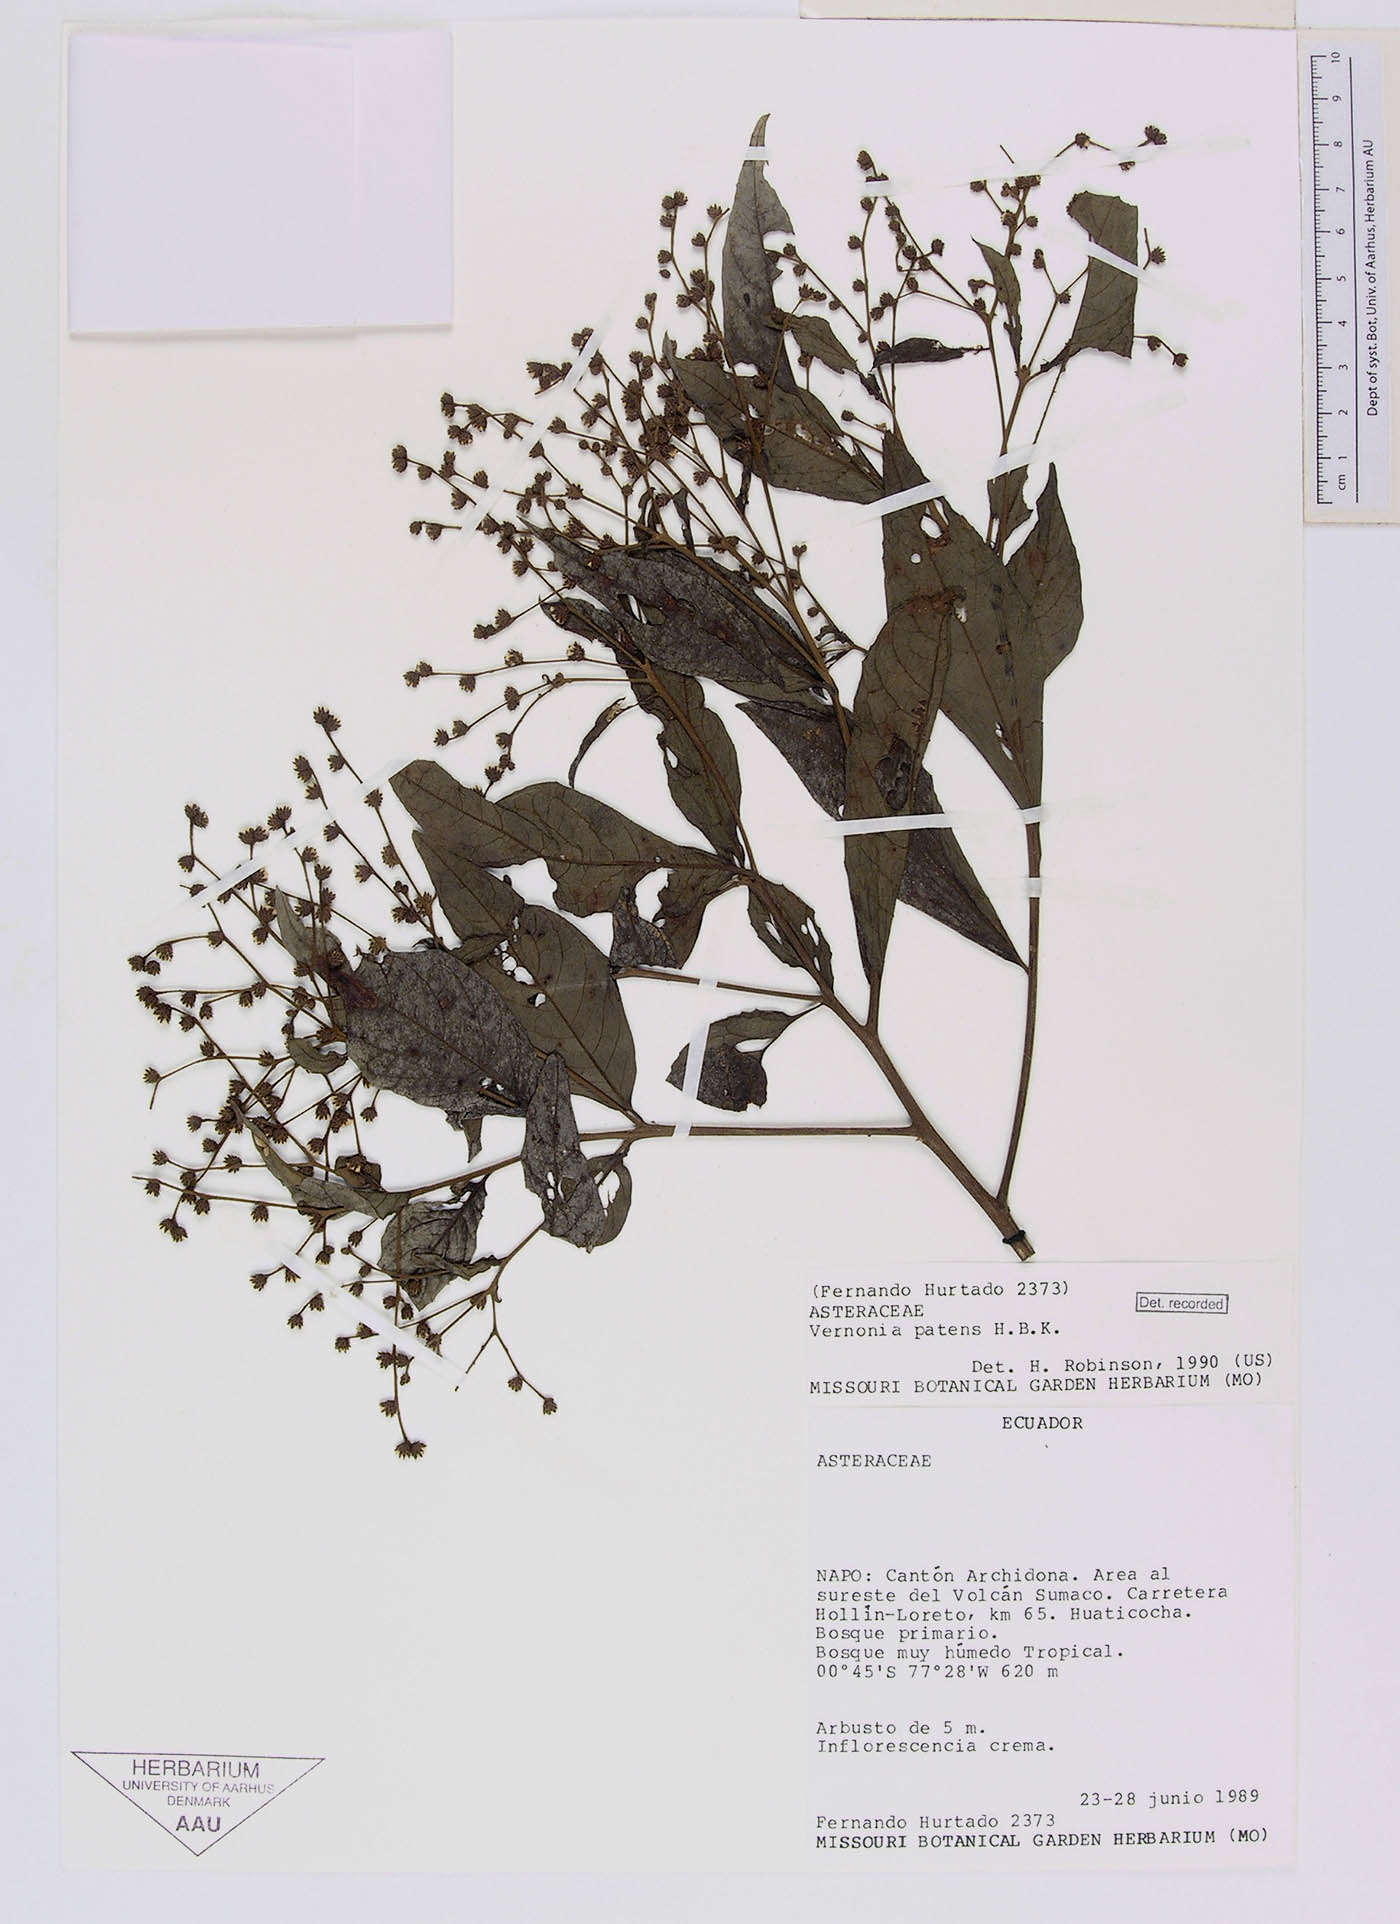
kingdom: Plantae
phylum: Tracheophyta
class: Magnoliopsida
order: Asterales
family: Asteraceae
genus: Vernonanthura
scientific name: Vernonanthura patens
